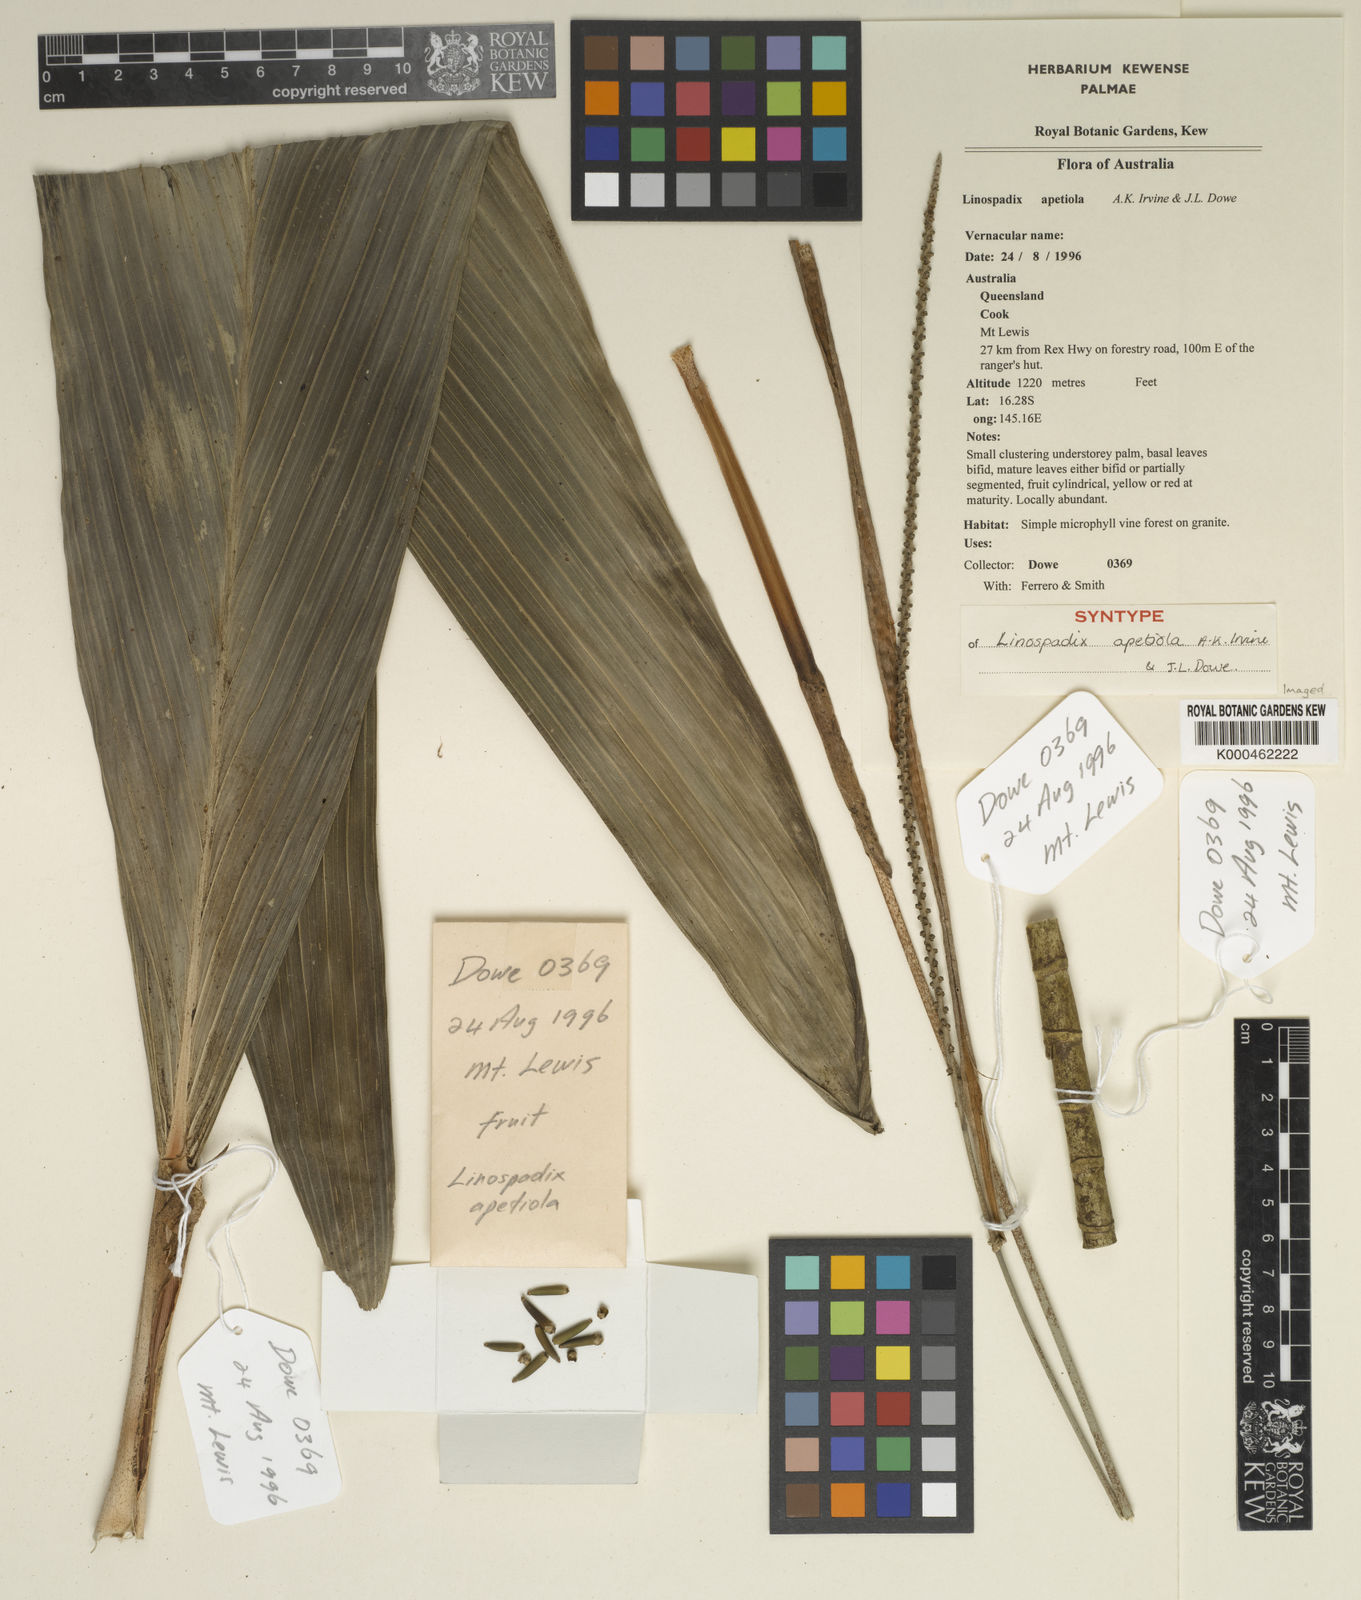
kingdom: Plantae
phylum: Tracheophyta
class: Liliopsida
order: Arecales
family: Arecaceae
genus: Linospadix
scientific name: Linospadix
